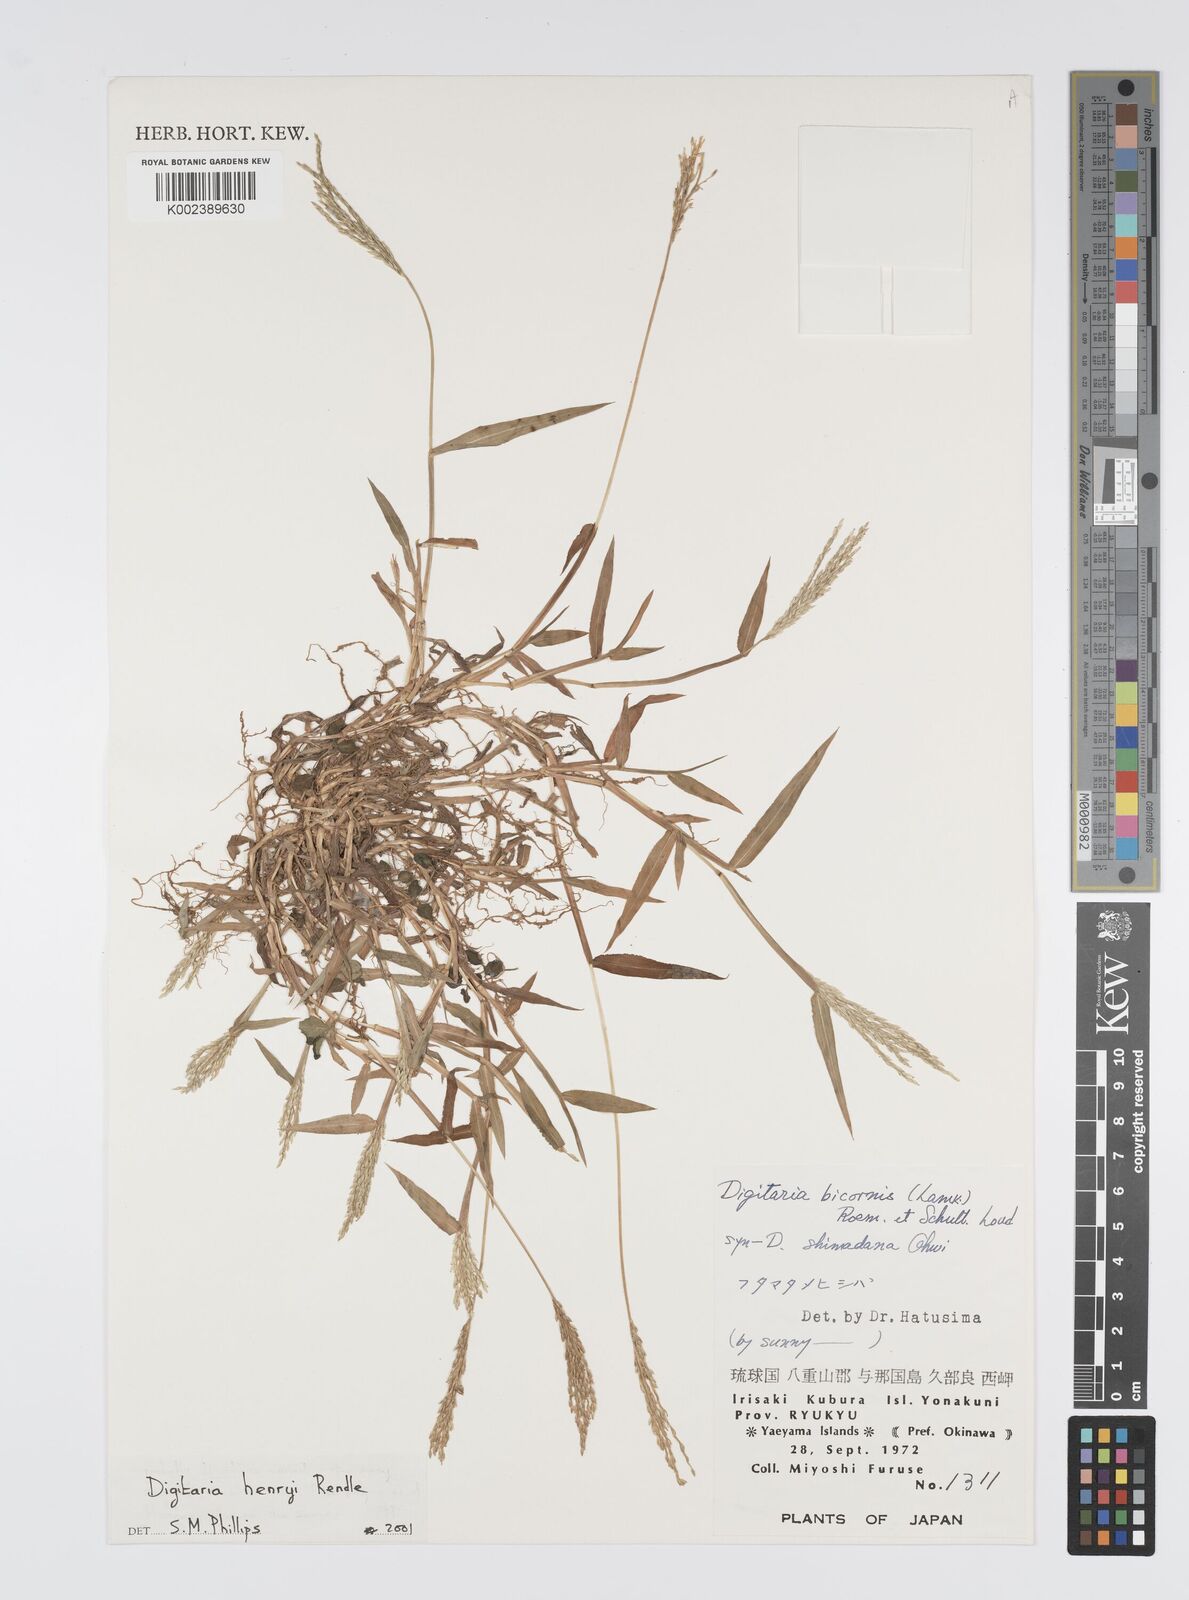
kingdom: Plantae
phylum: Tracheophyta
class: Liliopsida
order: Poales
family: Poaceae
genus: Digitaria
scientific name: Digitaria ciliaris
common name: Tropical finger-grass
